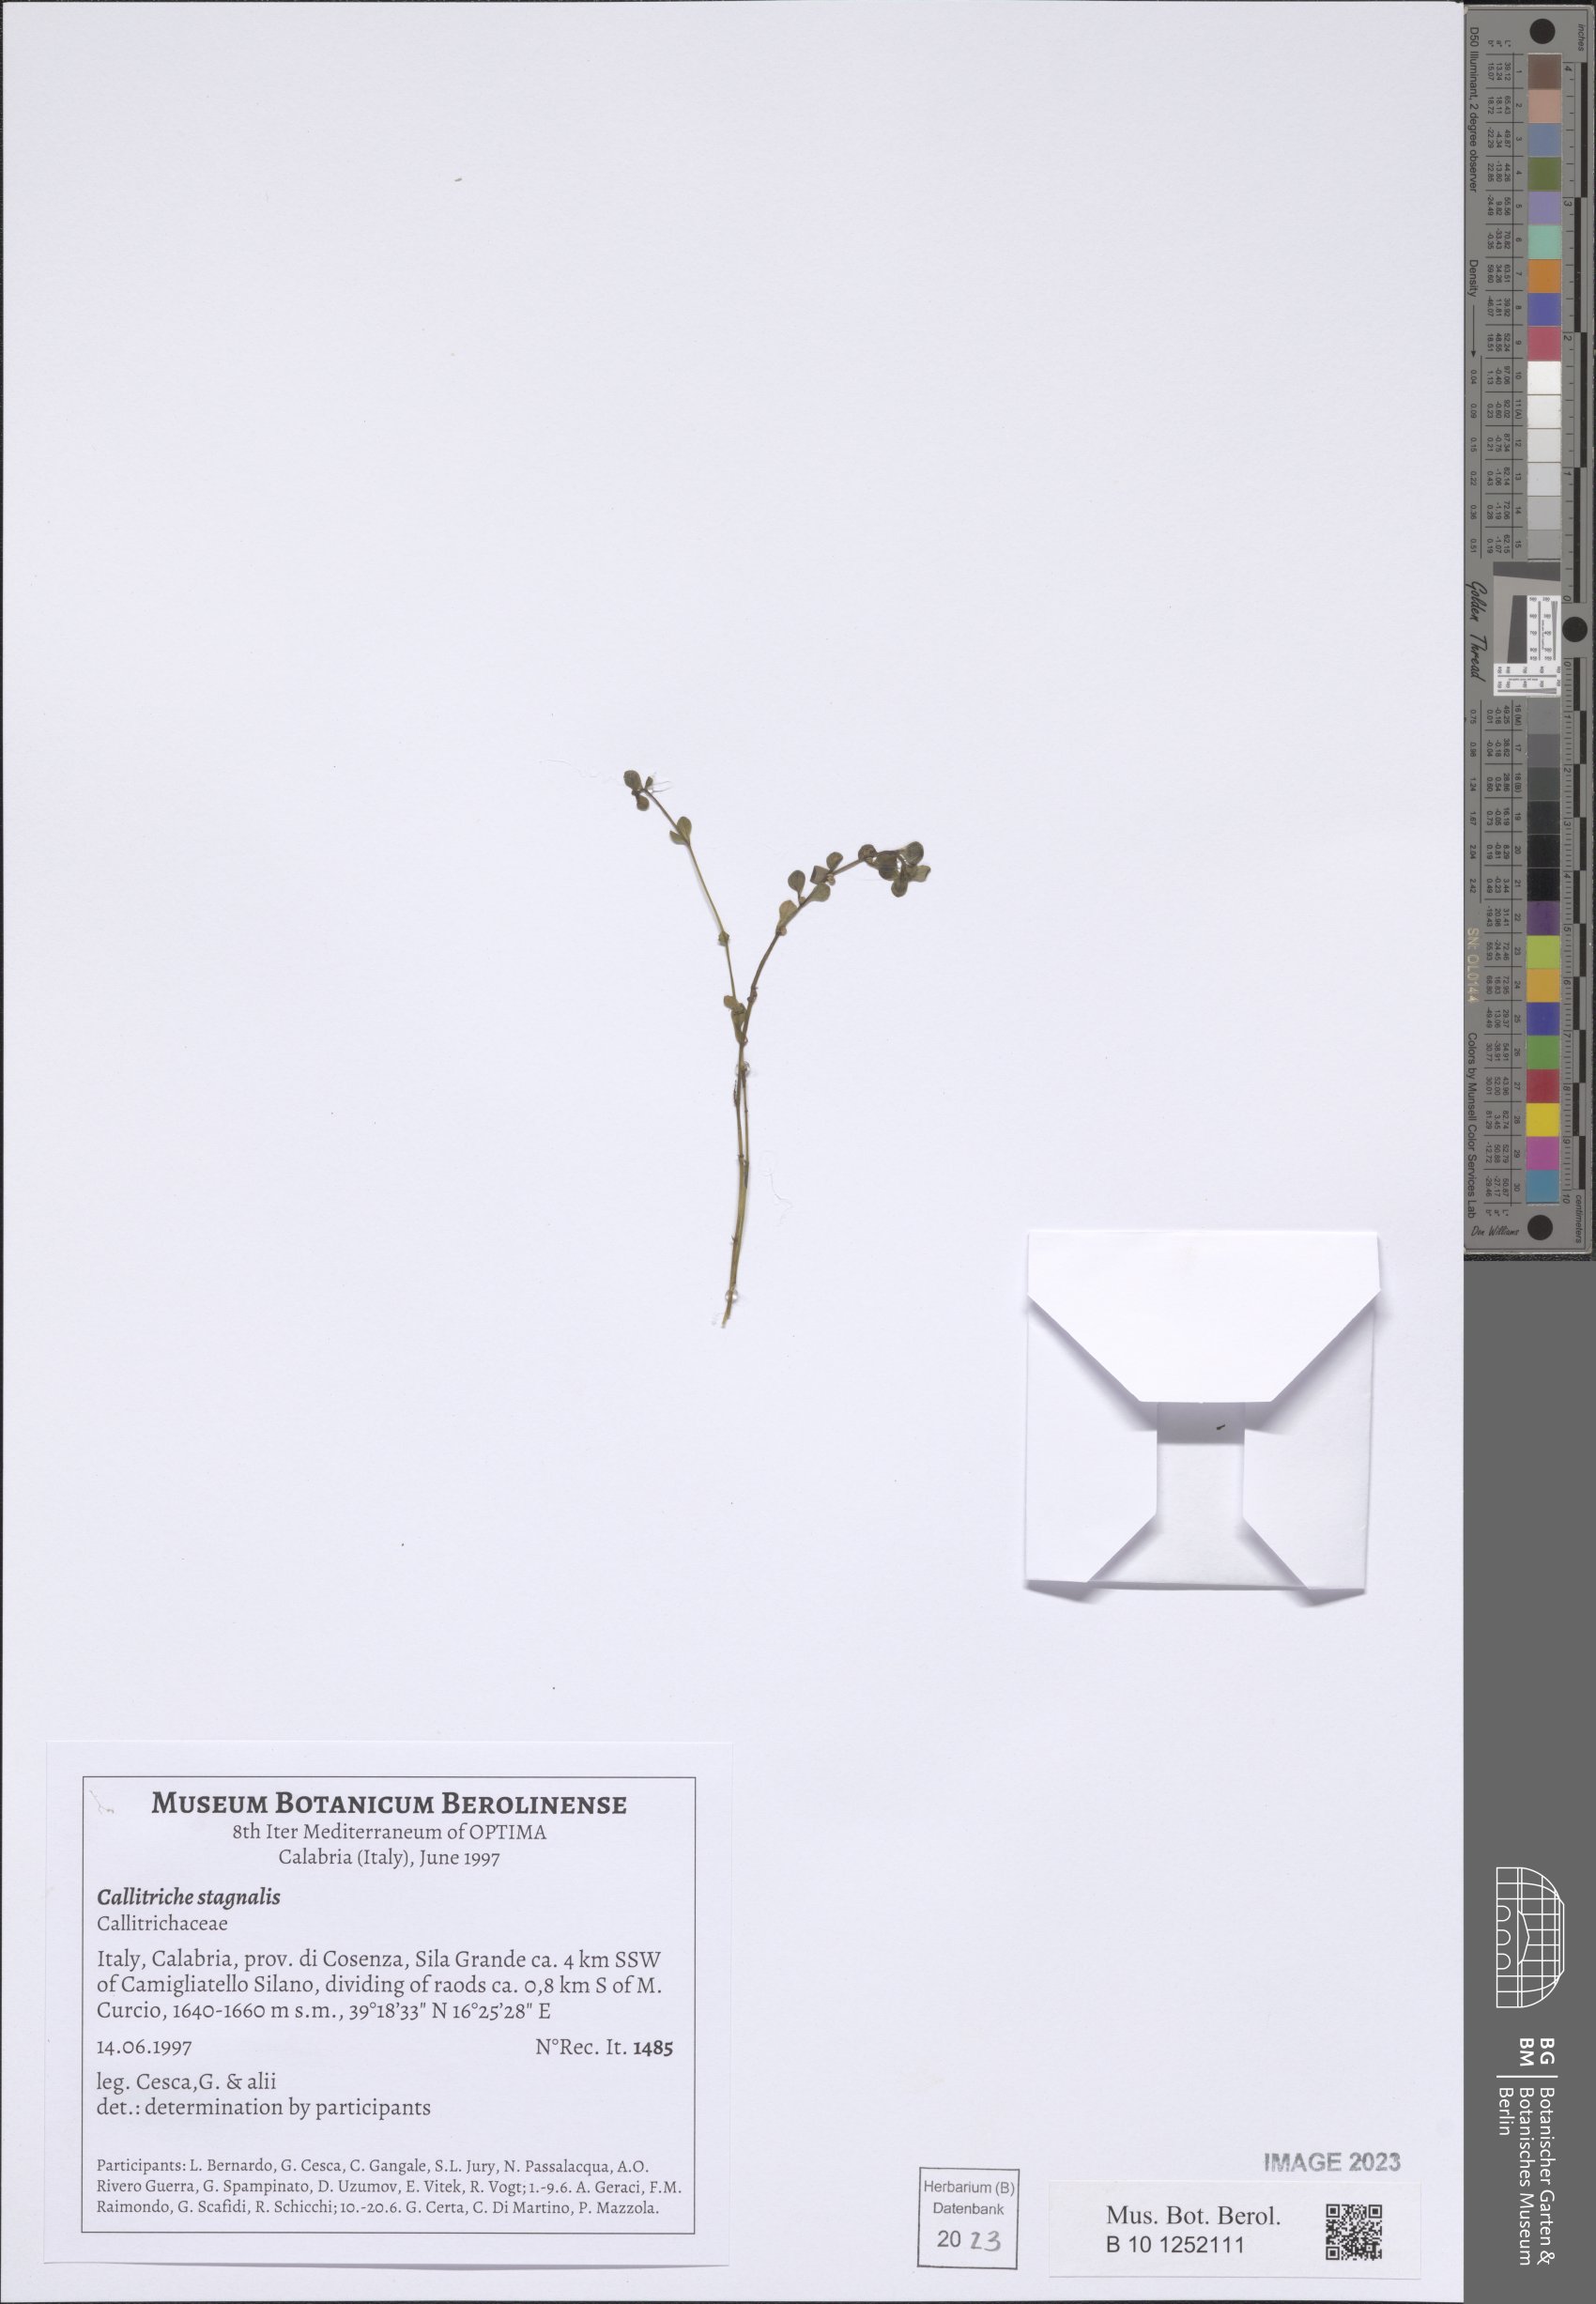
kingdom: Plantae
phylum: Tracheophyta
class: Magnoliopsida
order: Lamiales
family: Plantaginaceae
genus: Callitriche
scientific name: Callitriche stagnalis
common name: Common water-starwort
